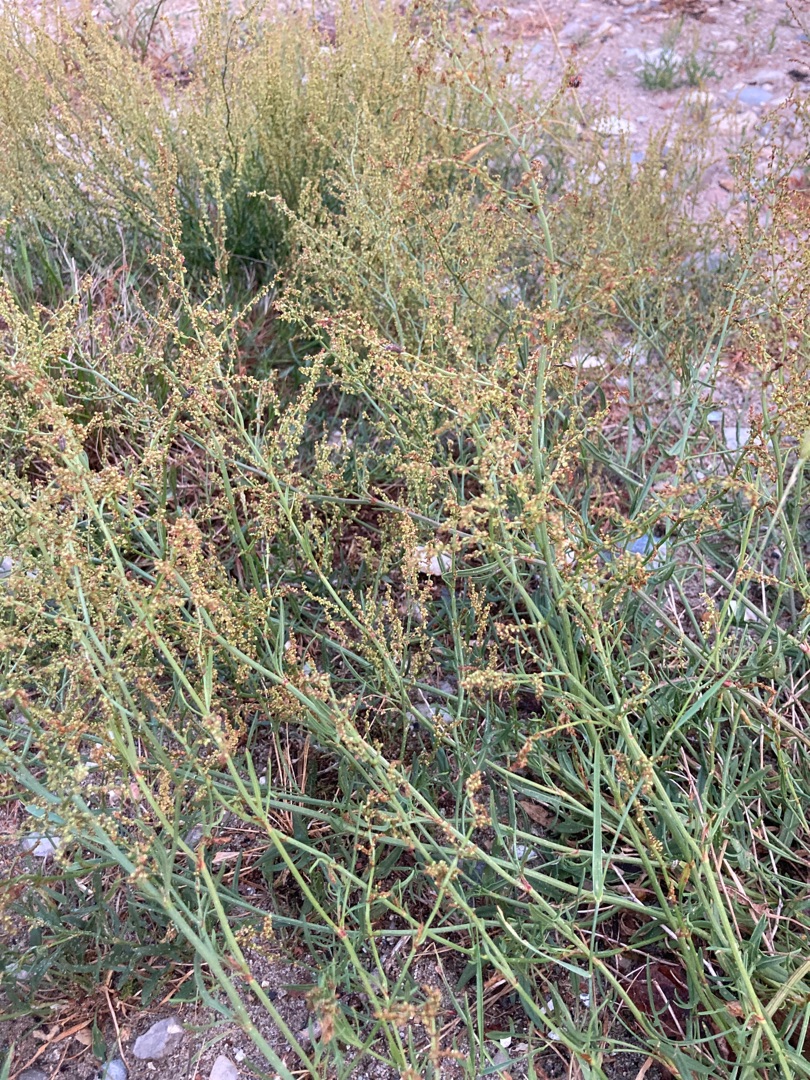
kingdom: Plantae
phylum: Tracheophyta
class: Magnoliopsida
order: Caryophyllales
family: Polygonaceae
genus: Rumex
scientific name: Rumex acetosella
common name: Rødknæ
